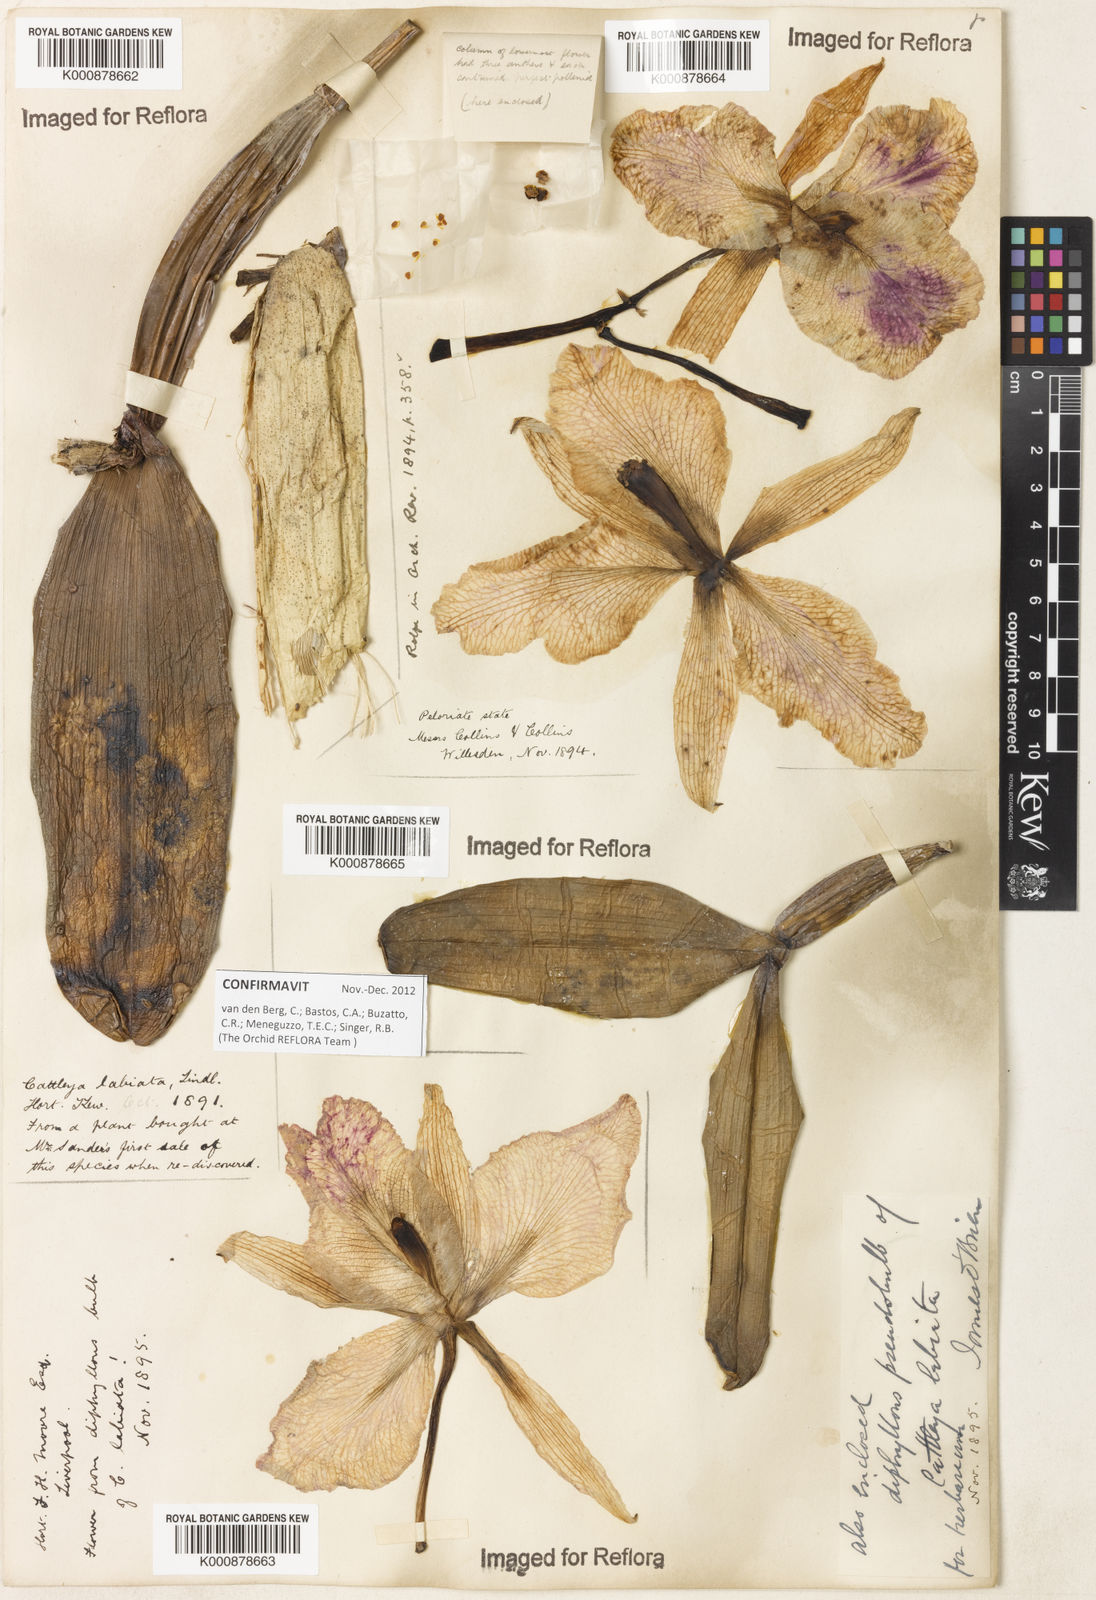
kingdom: Plantae
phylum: Tracheophyta
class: Liliopsida
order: Asparagales
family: Orchidaceae
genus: Cattleya
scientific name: Cattleya labiata
